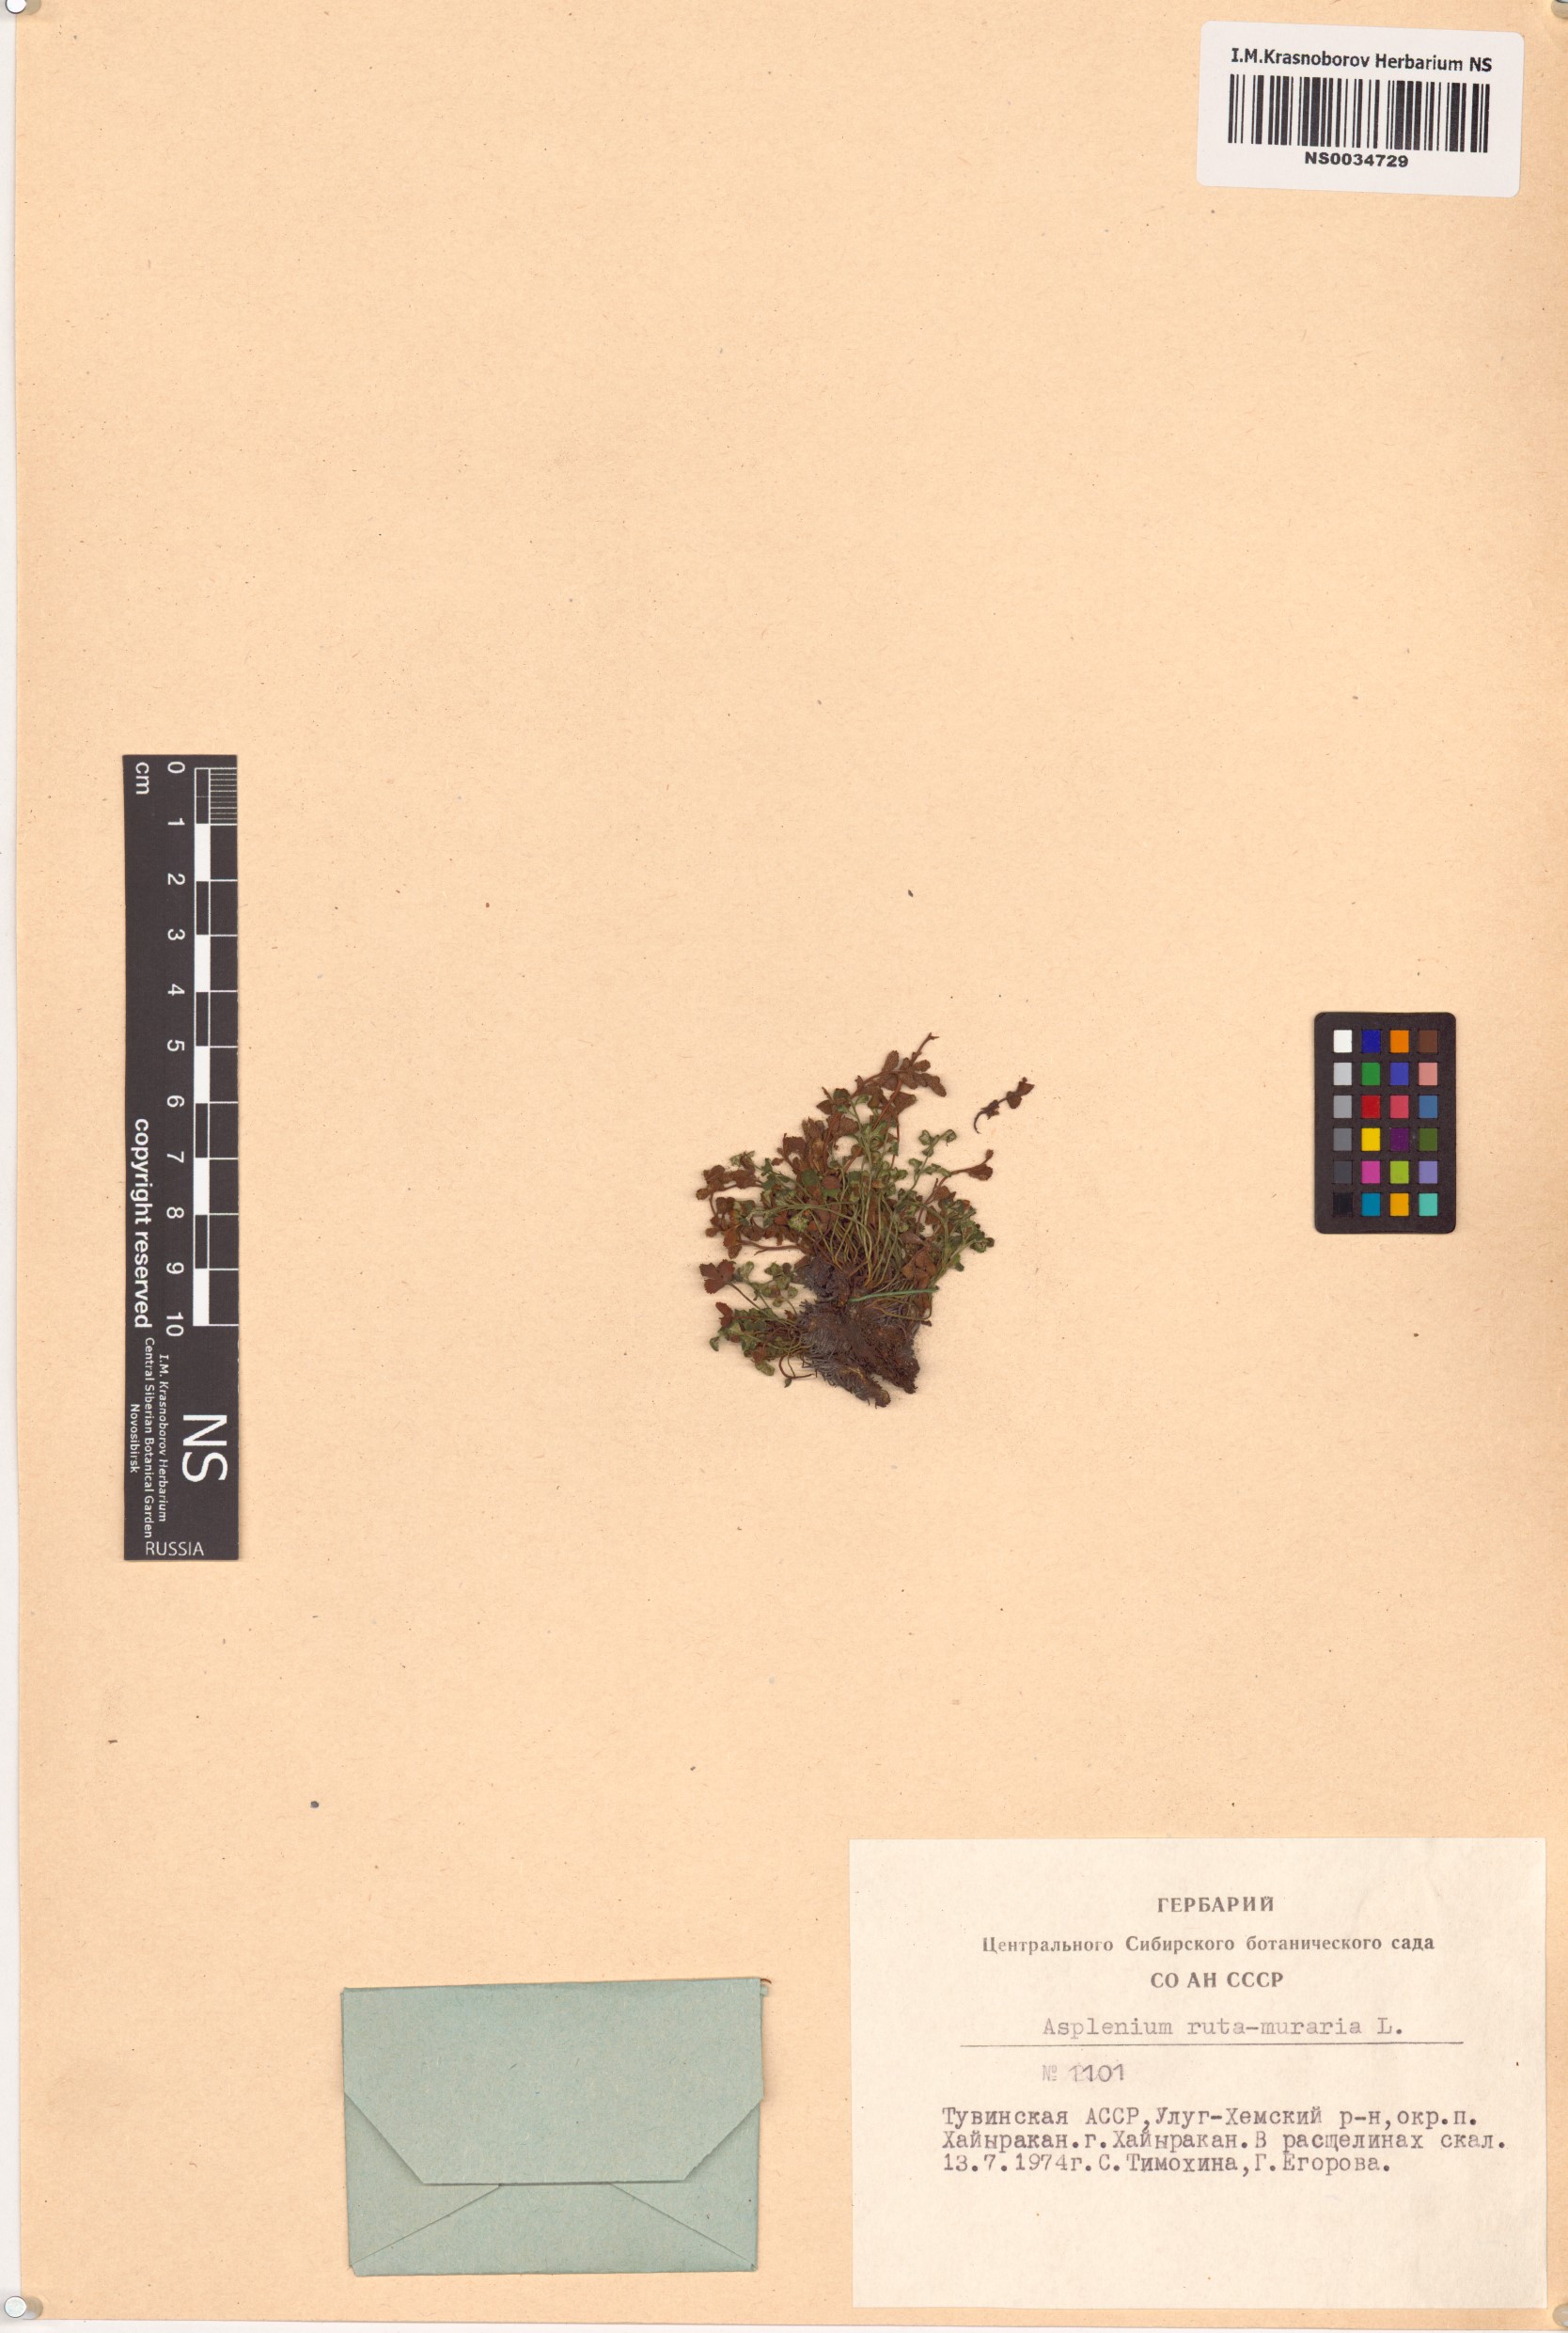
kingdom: Plantae
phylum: Tracheophyta
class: Polypodiopsida
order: Polypodiales
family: Aspleniaceae
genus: Asplenium
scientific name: Asplenium ruta-muraria
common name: Wall-rue
